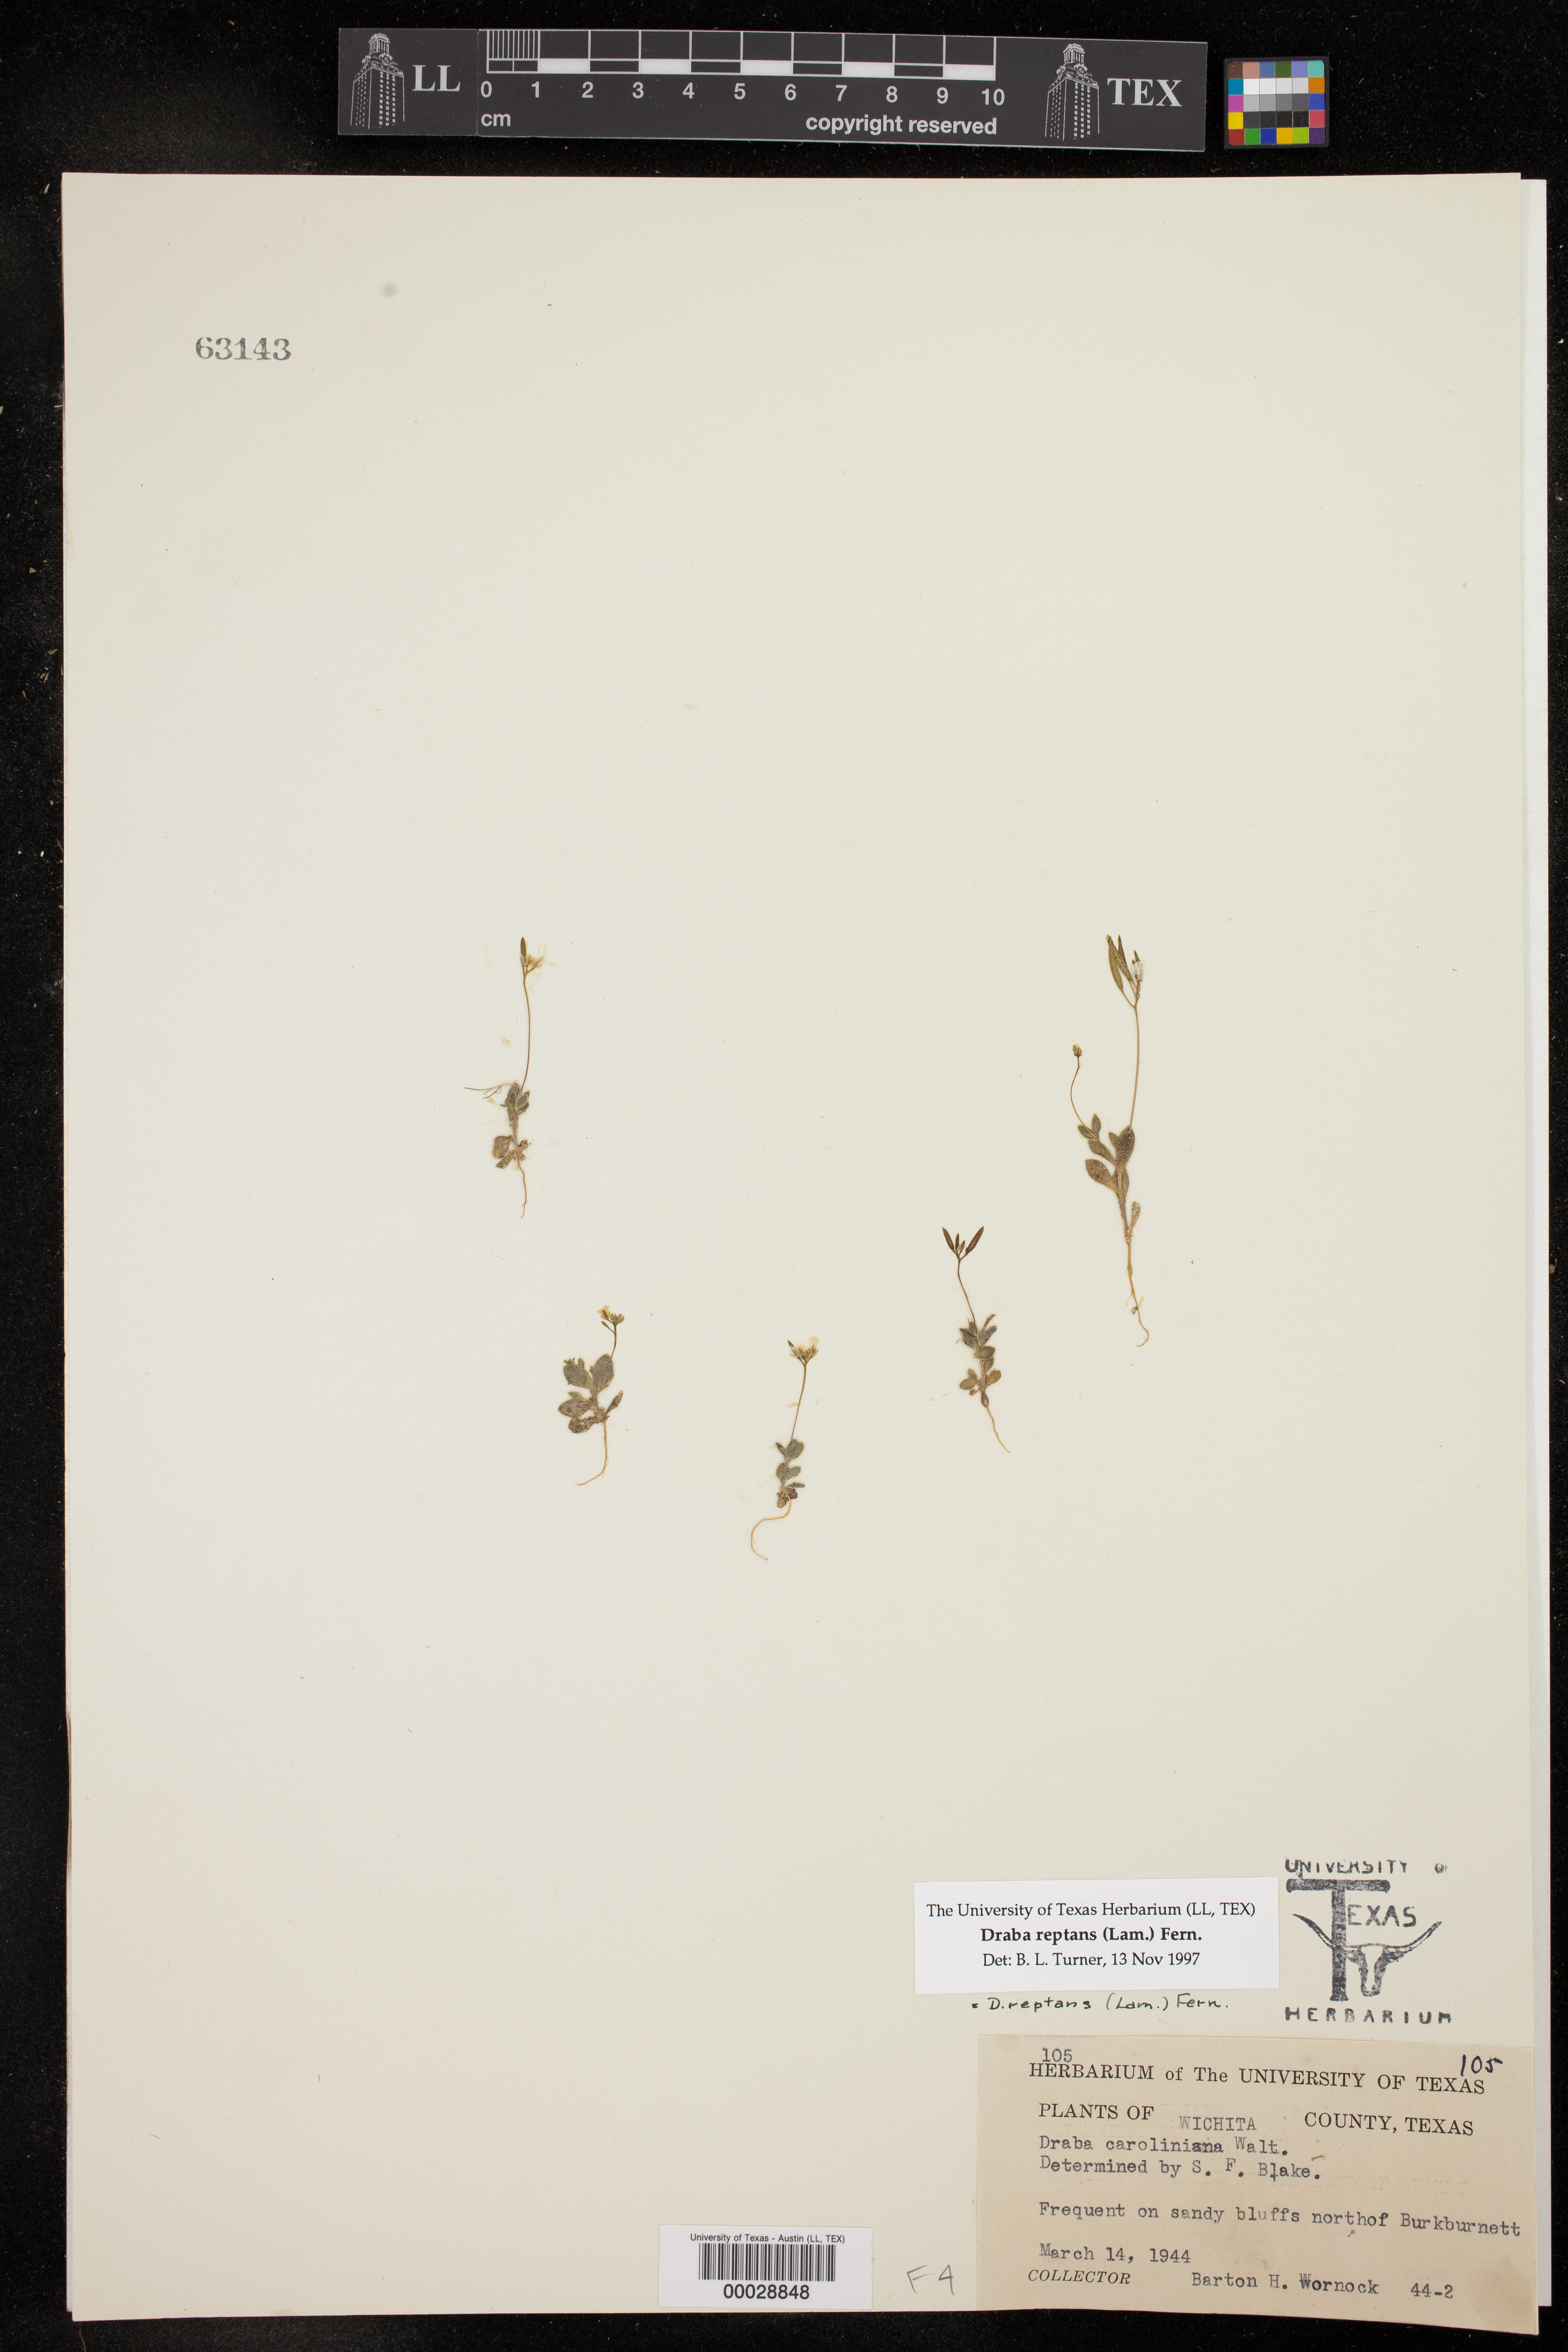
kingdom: Plantae
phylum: Tracheophyta
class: Magnoliopsida
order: Brassicales
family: Brassicaceae
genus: Tomostima
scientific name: Tomostima reptans
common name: Carolina draba
